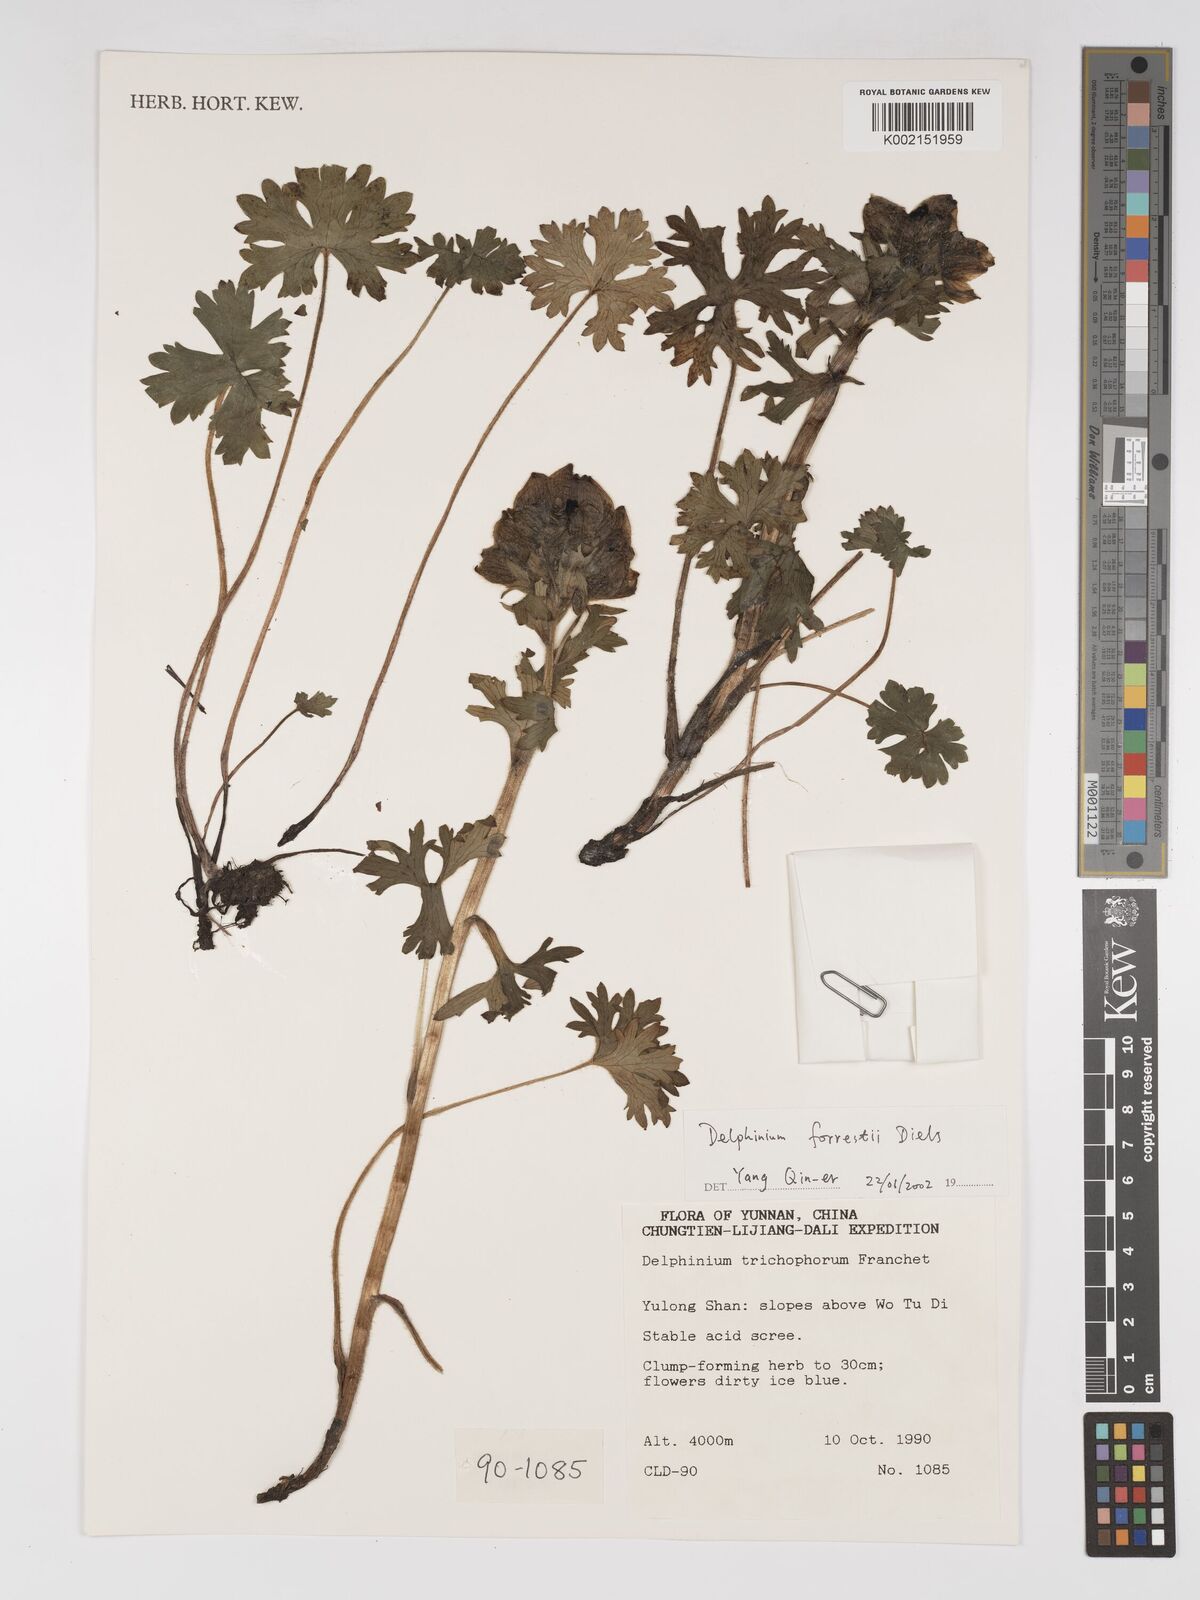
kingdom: Plantae
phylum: Tracheophyta
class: Magnoliopsida
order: Ranunculales
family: Ranunculaceae
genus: Delphinium
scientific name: Delphinium trichophorum
